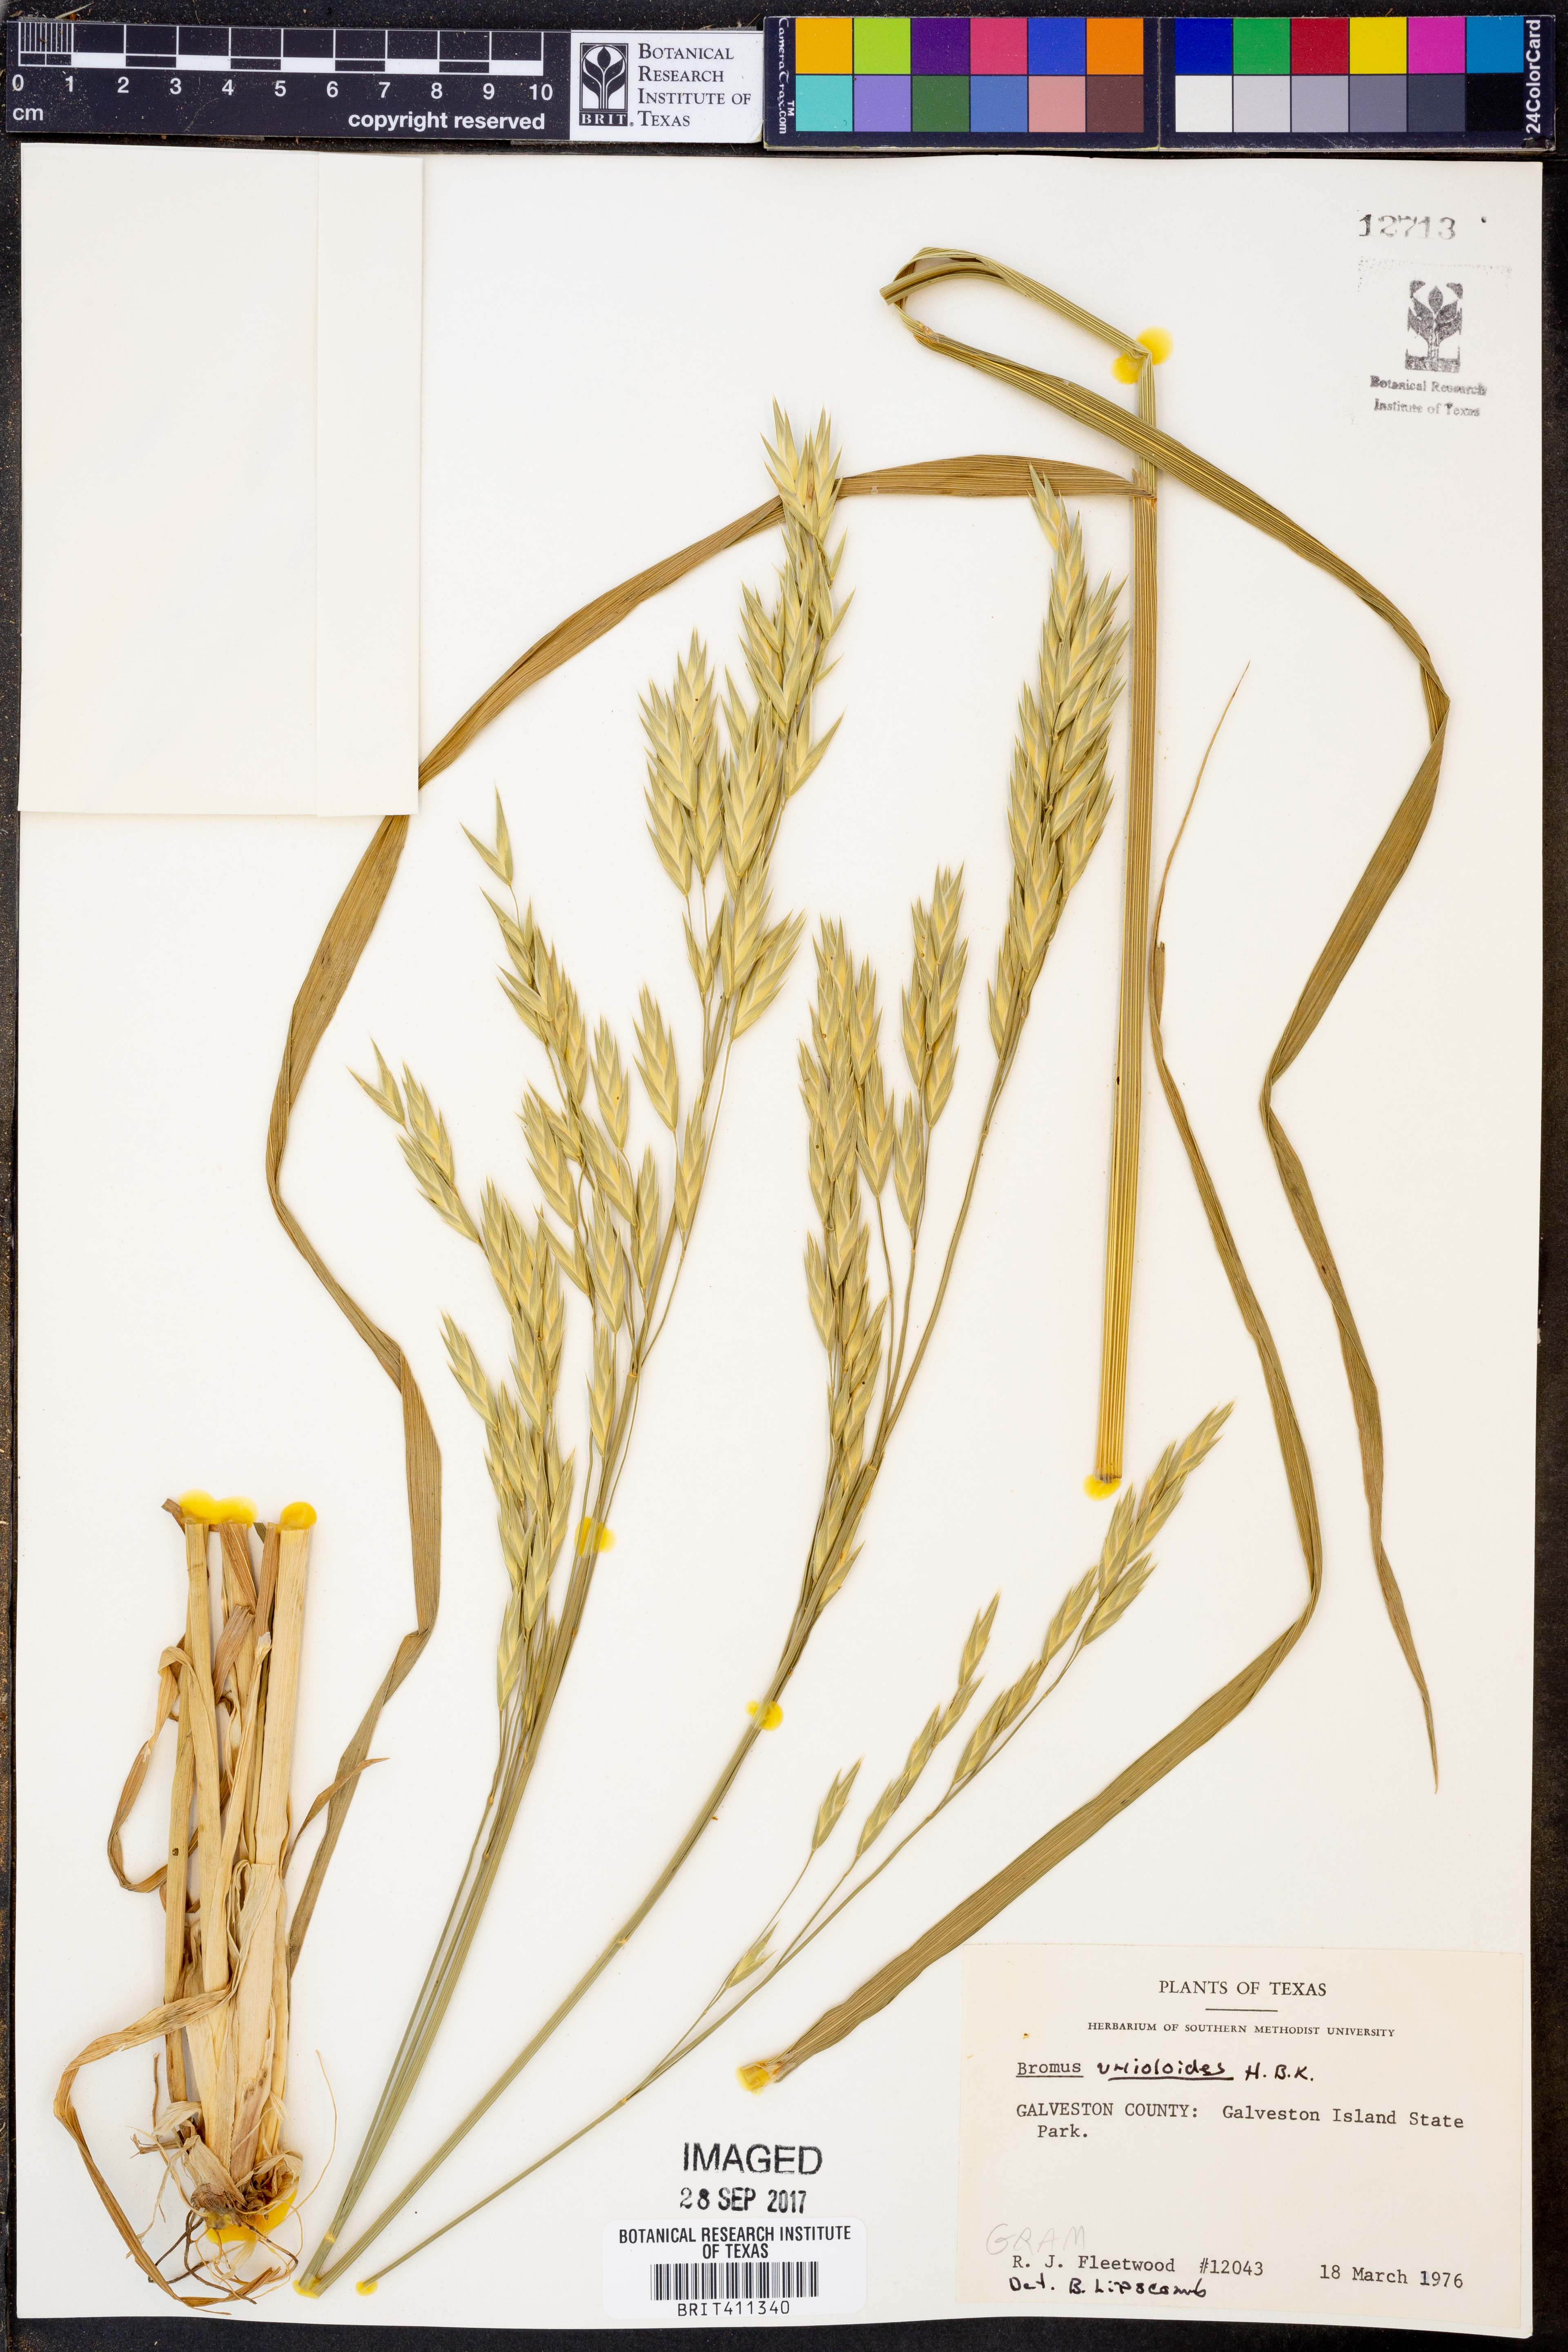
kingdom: Plantae
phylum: Tracheophyta
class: Liliopsida
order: Poales
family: Poaceae
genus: Bromus
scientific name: Bromus catharticus
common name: Rescuegrass
